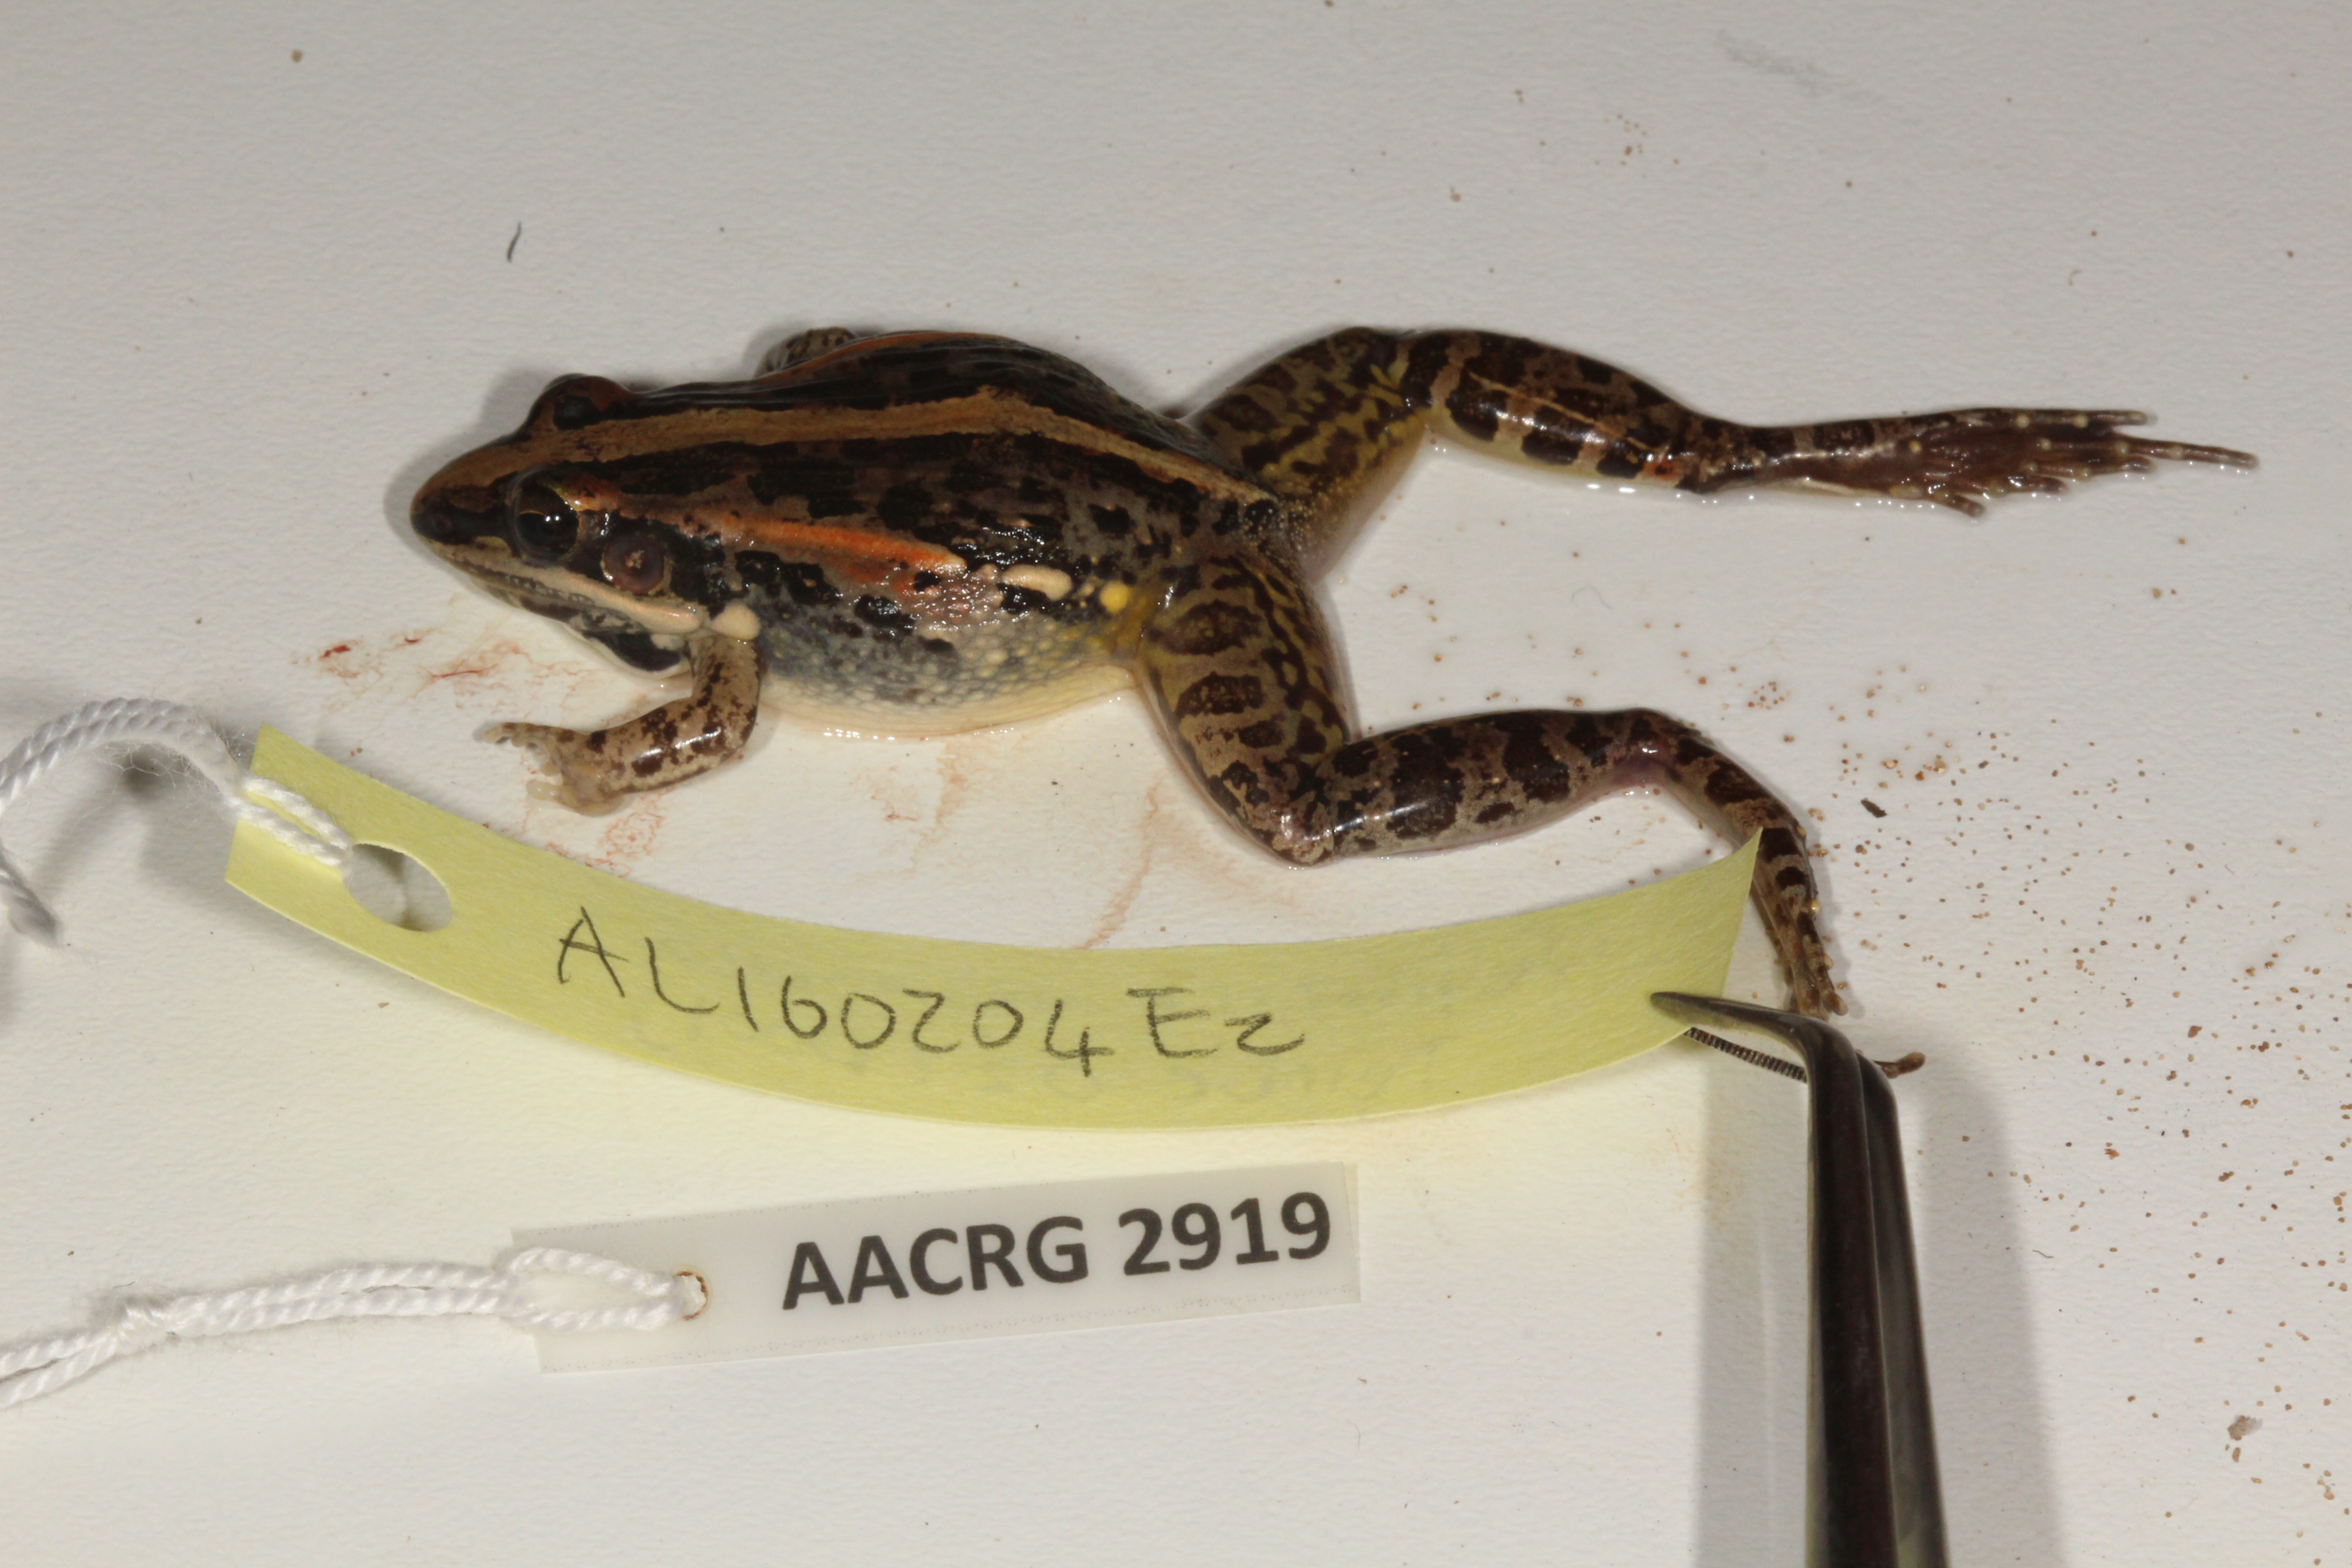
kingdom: Animalia
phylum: Chordata
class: Amphibia
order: Anura
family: Ptychadenidae
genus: Ptychadena
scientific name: Ptychadena mossambica
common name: Mozambique ridged frog
